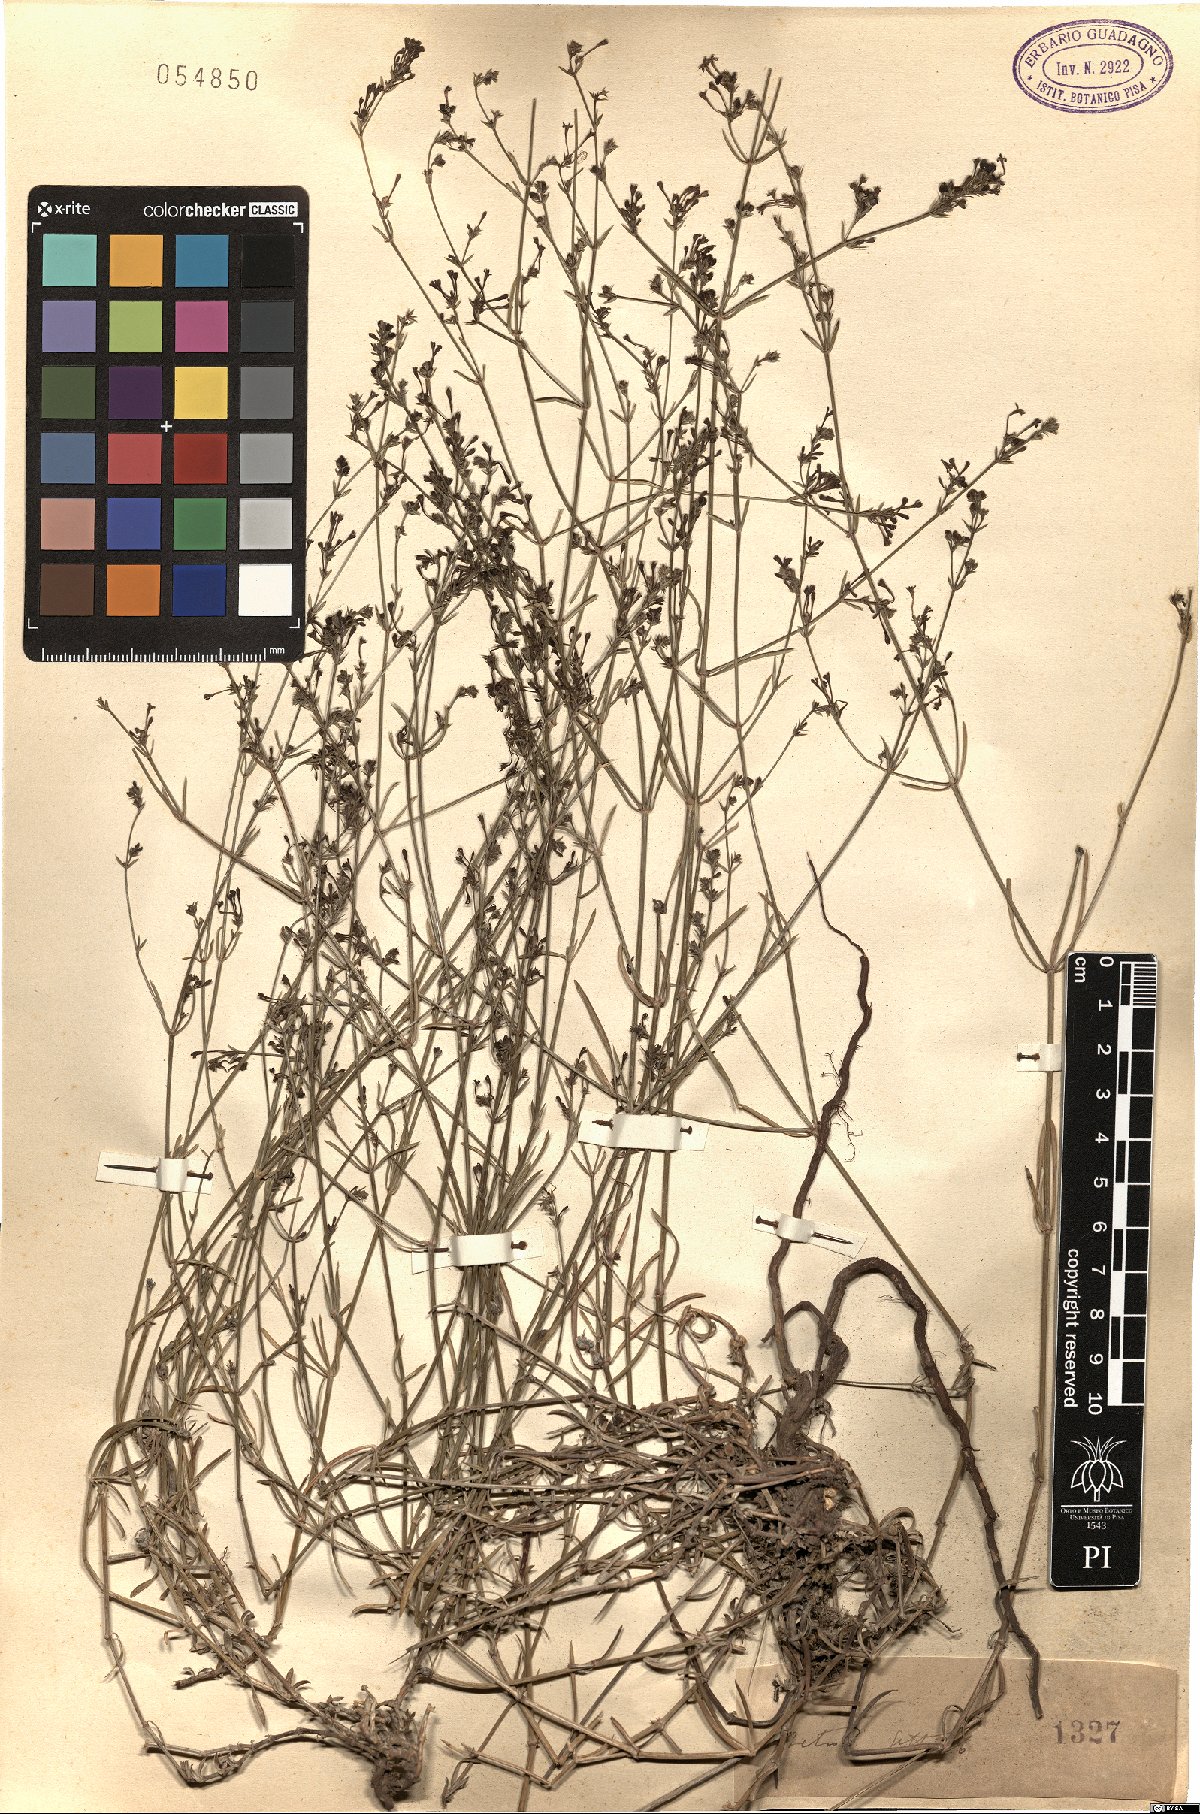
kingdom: Plantae
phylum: Tracheophyta
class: Magnoliopsida
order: Gentianales
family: Rubiaceae
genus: Asperula
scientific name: Asperula
